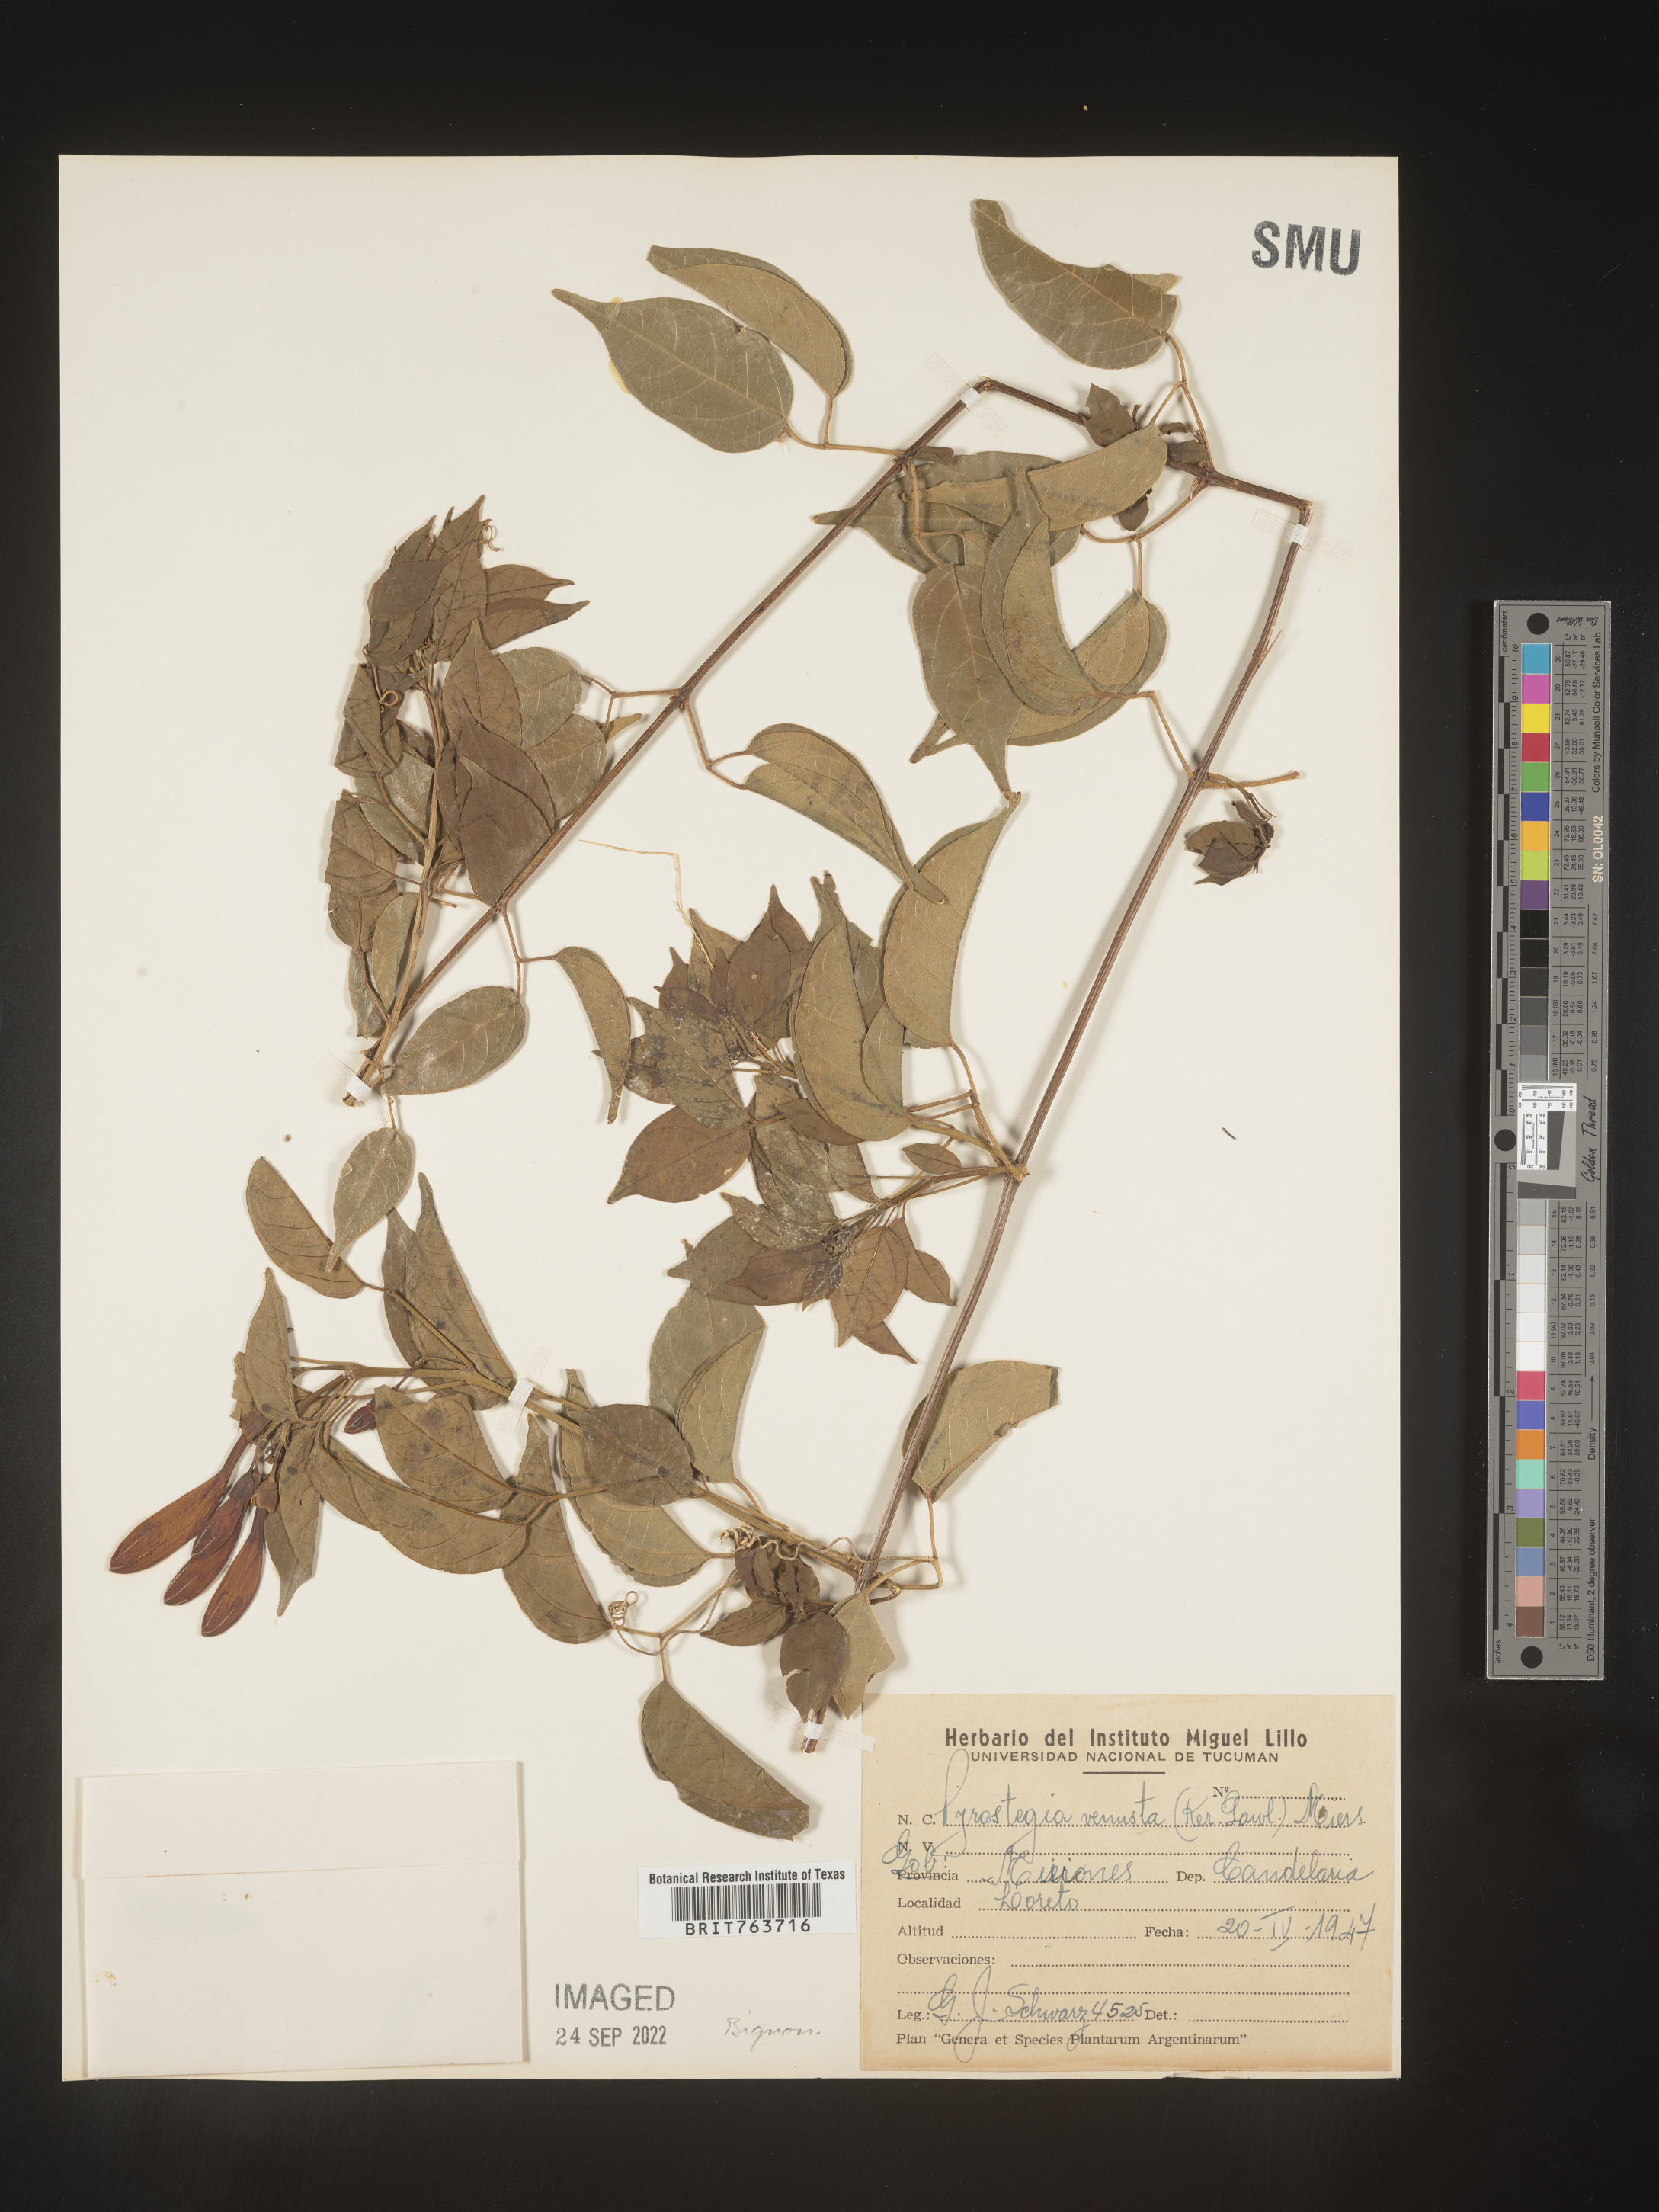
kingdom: Plantae
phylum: Tracheophyta
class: Magnoliopsida
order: Lamiales
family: Bignoniaceae
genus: Pyrostegia
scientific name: Pyrostegia
